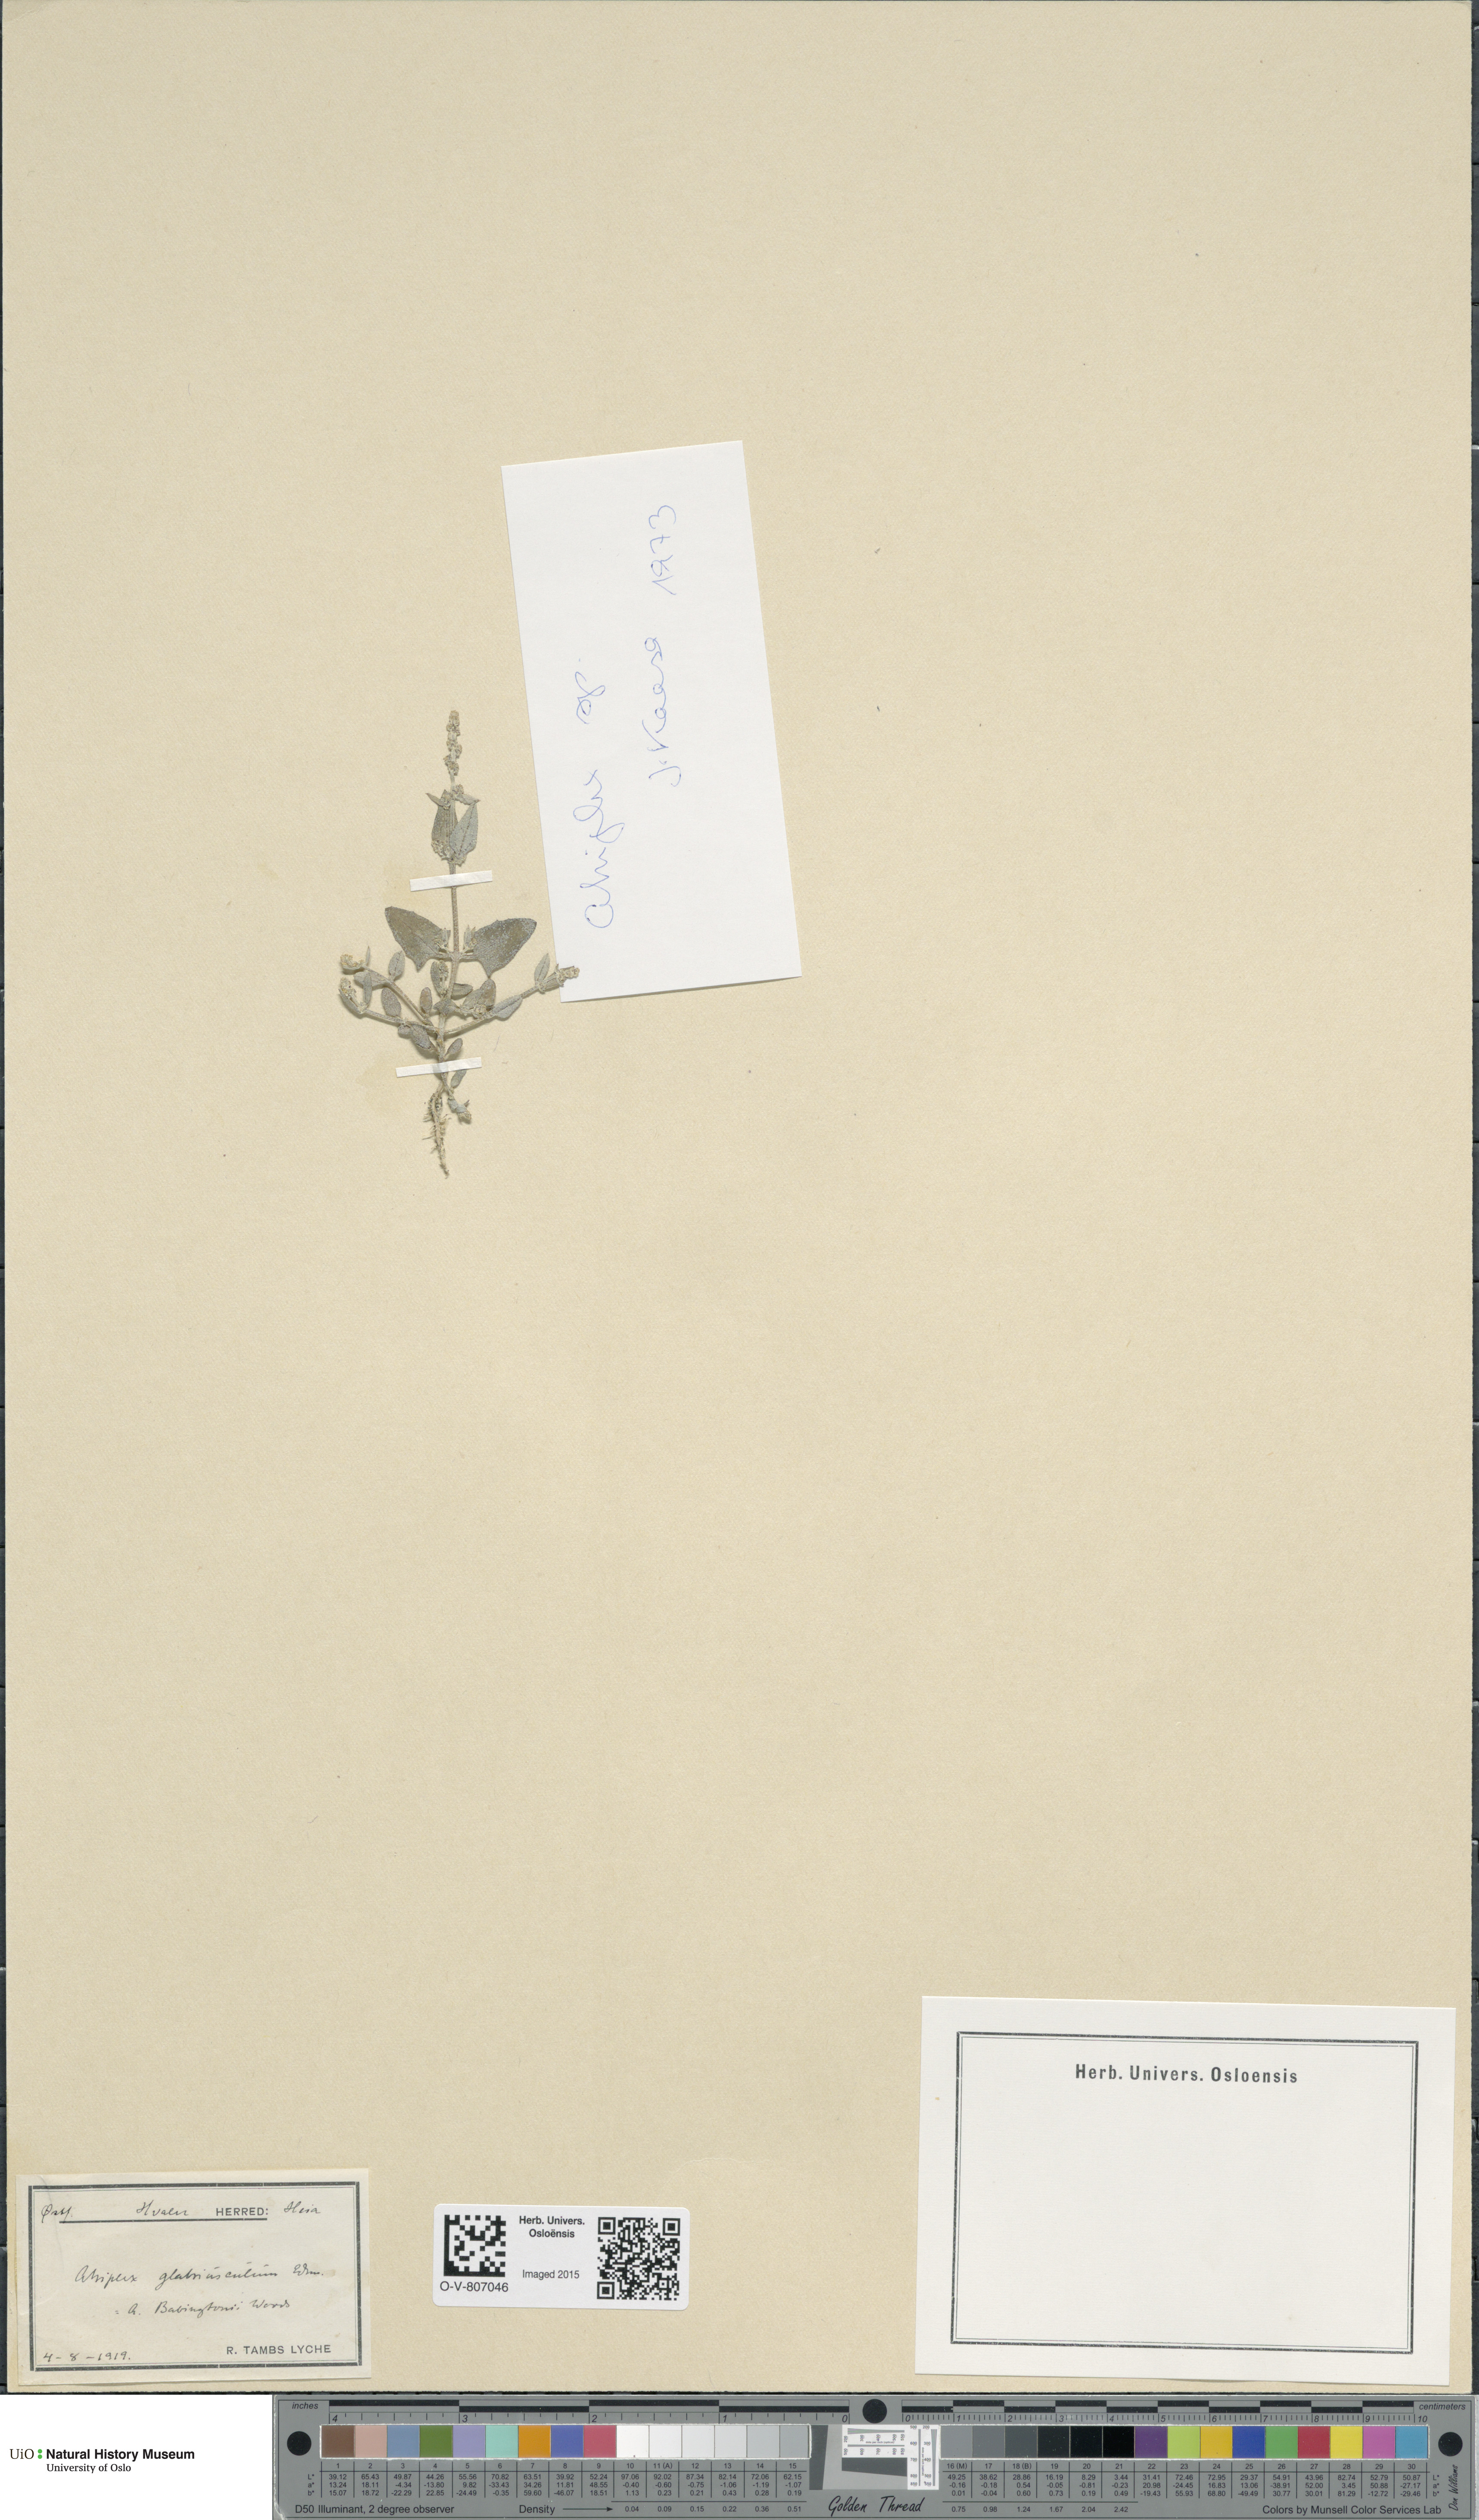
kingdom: Plantae
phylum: Tracheophyta
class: Magnoliopsida
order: Caryophyllales
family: Amaranthaceae
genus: Atriplex
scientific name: Atriplex
